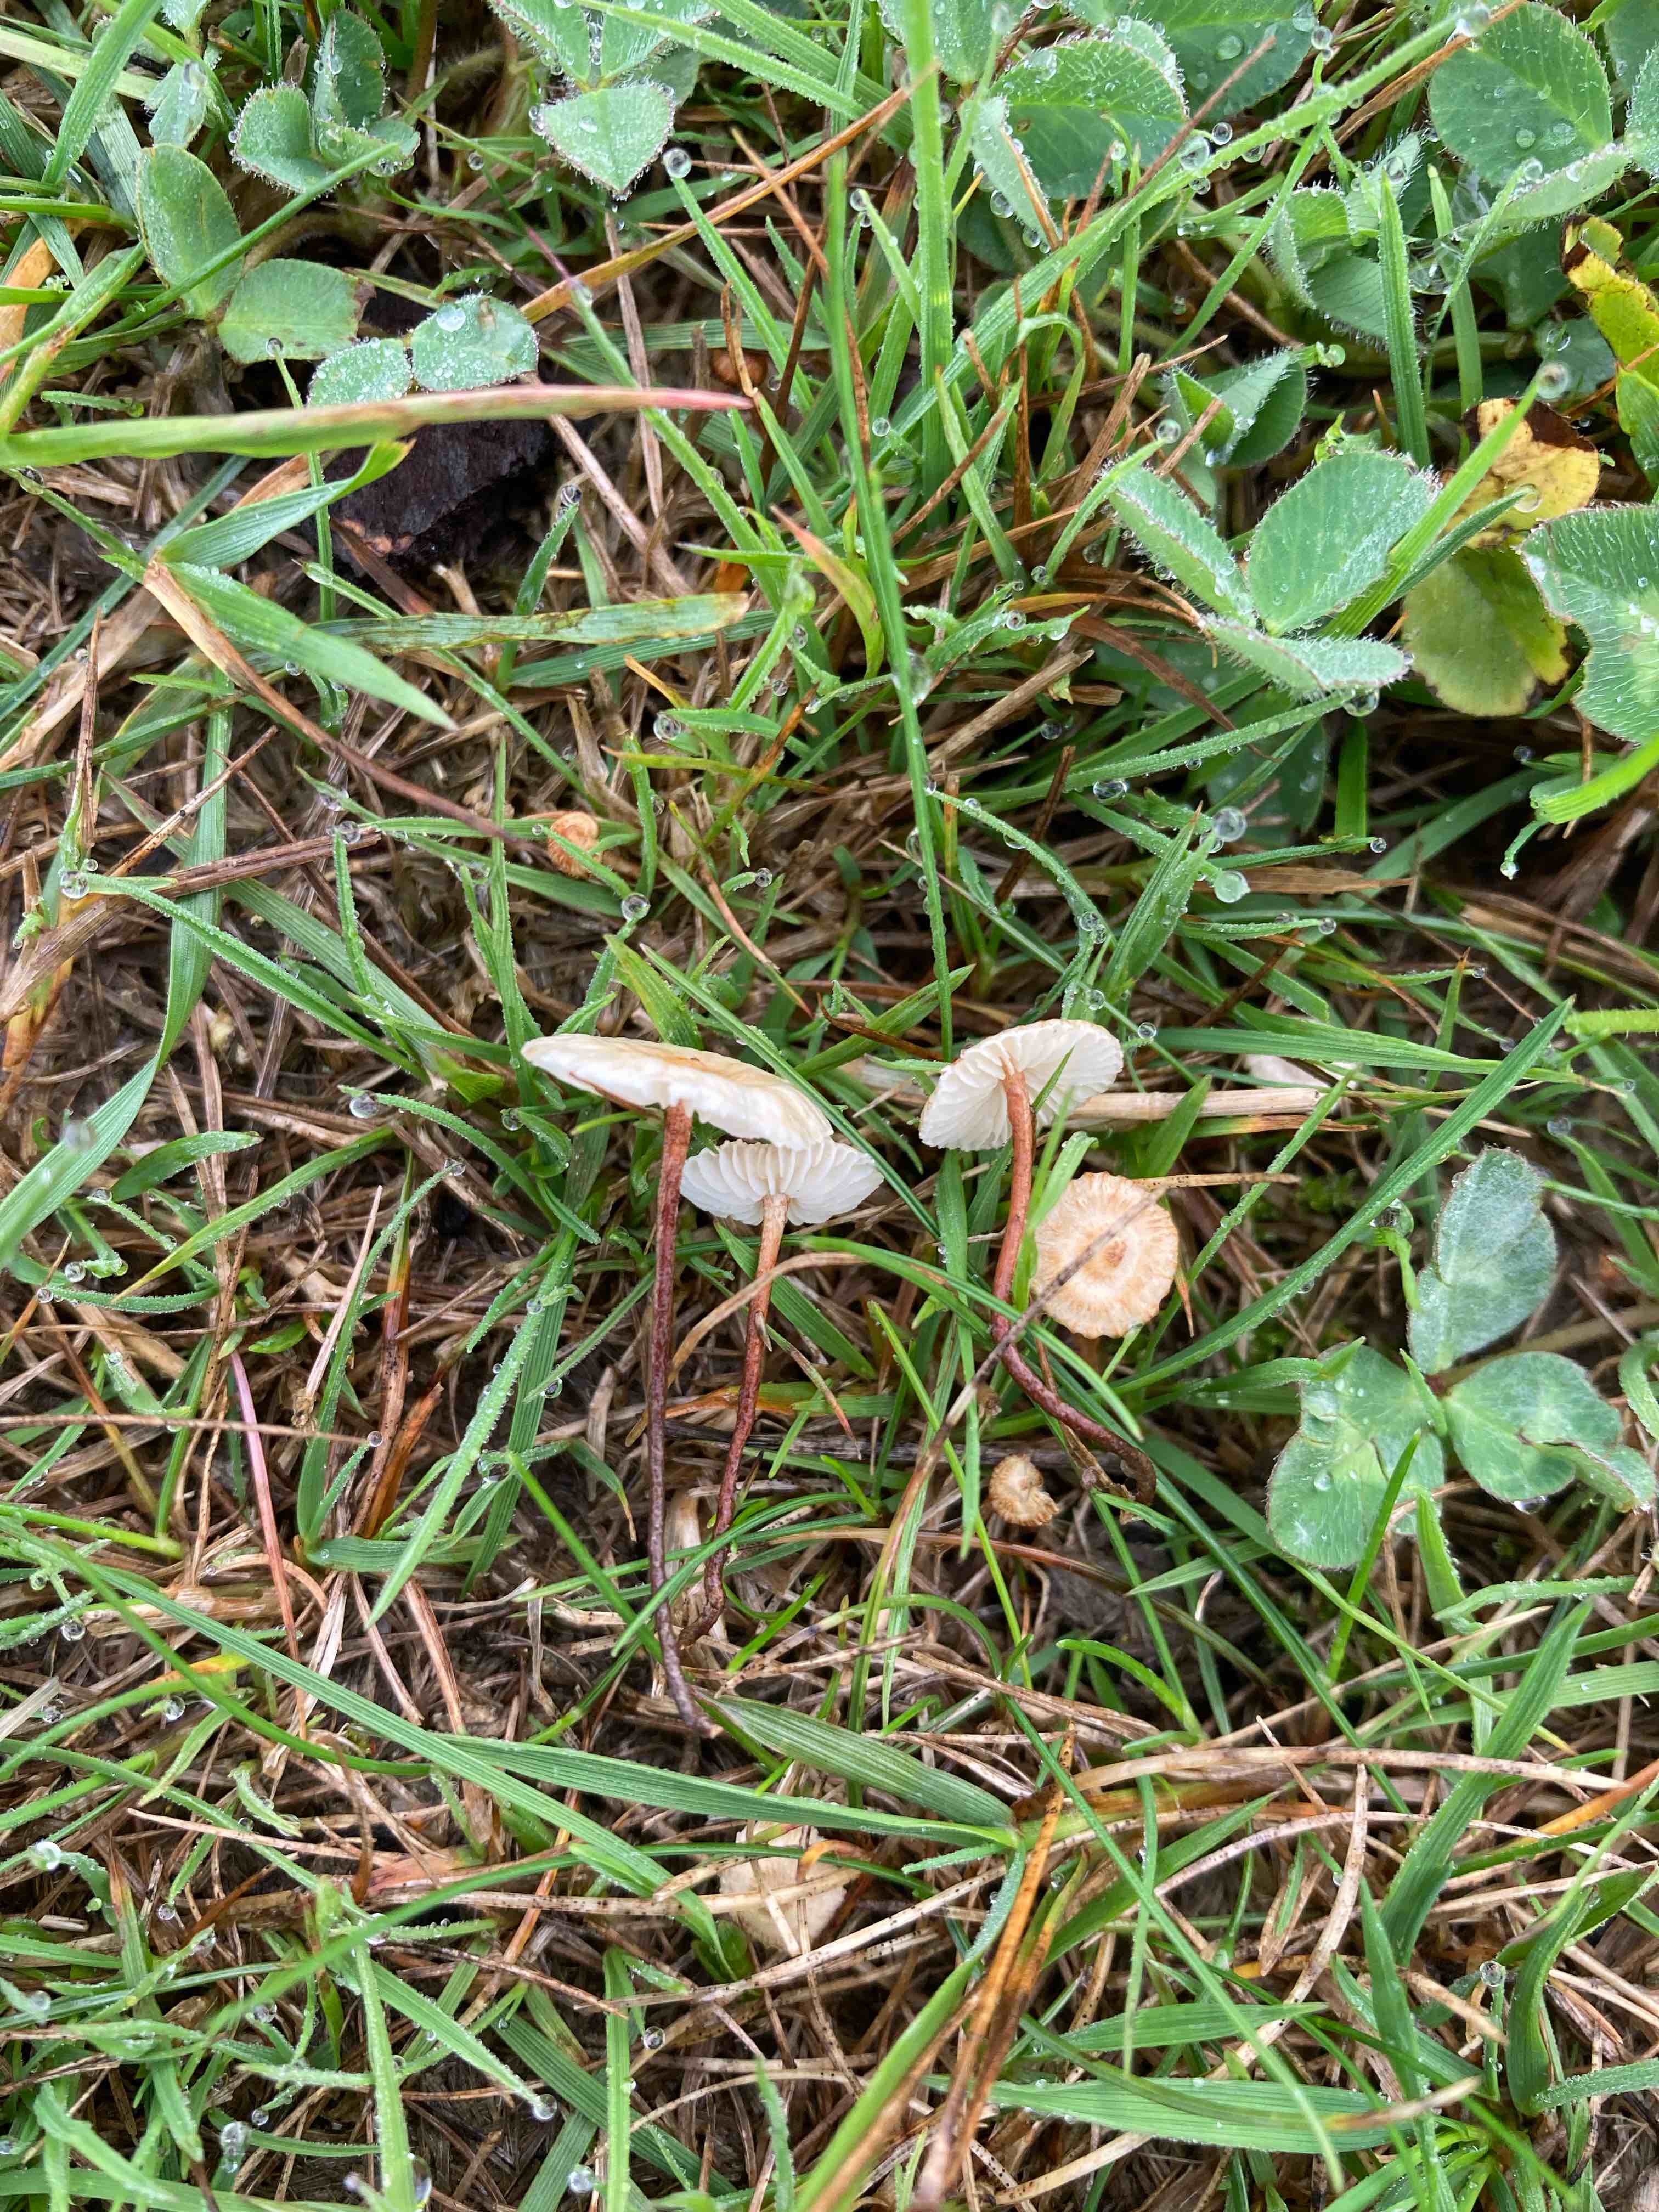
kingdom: Fungi
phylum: Basidiomycota
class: Agaricomycetes
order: Agaricales
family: Marasmiaceae
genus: Crinipellis
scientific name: Crinipellis scabella
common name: børstefod
